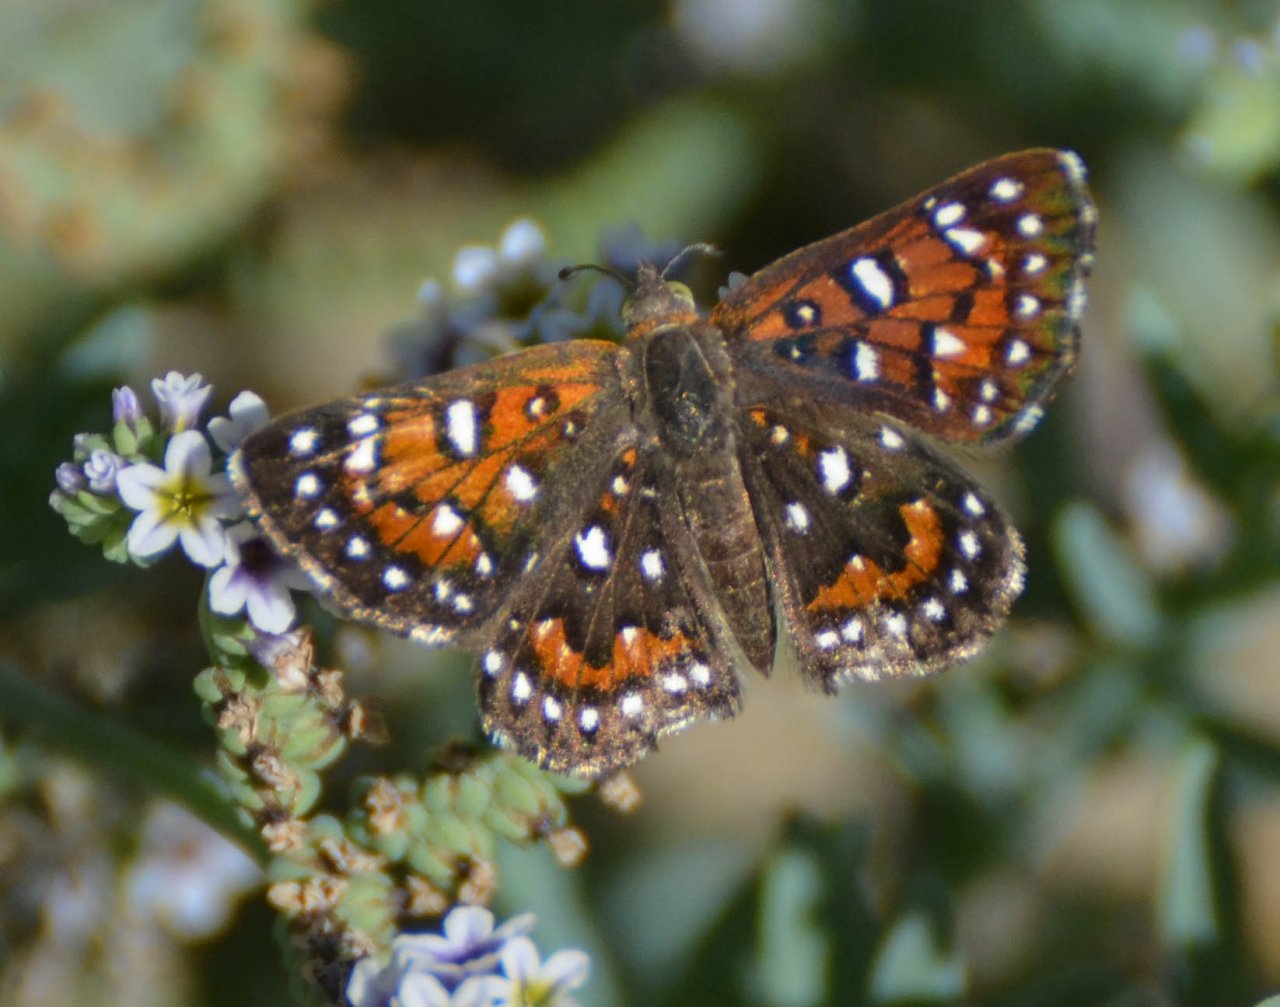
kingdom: Animalia
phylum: Arthropoda
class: Insecta
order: Lepidoptera
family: Riodinidae
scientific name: Riodinidae
